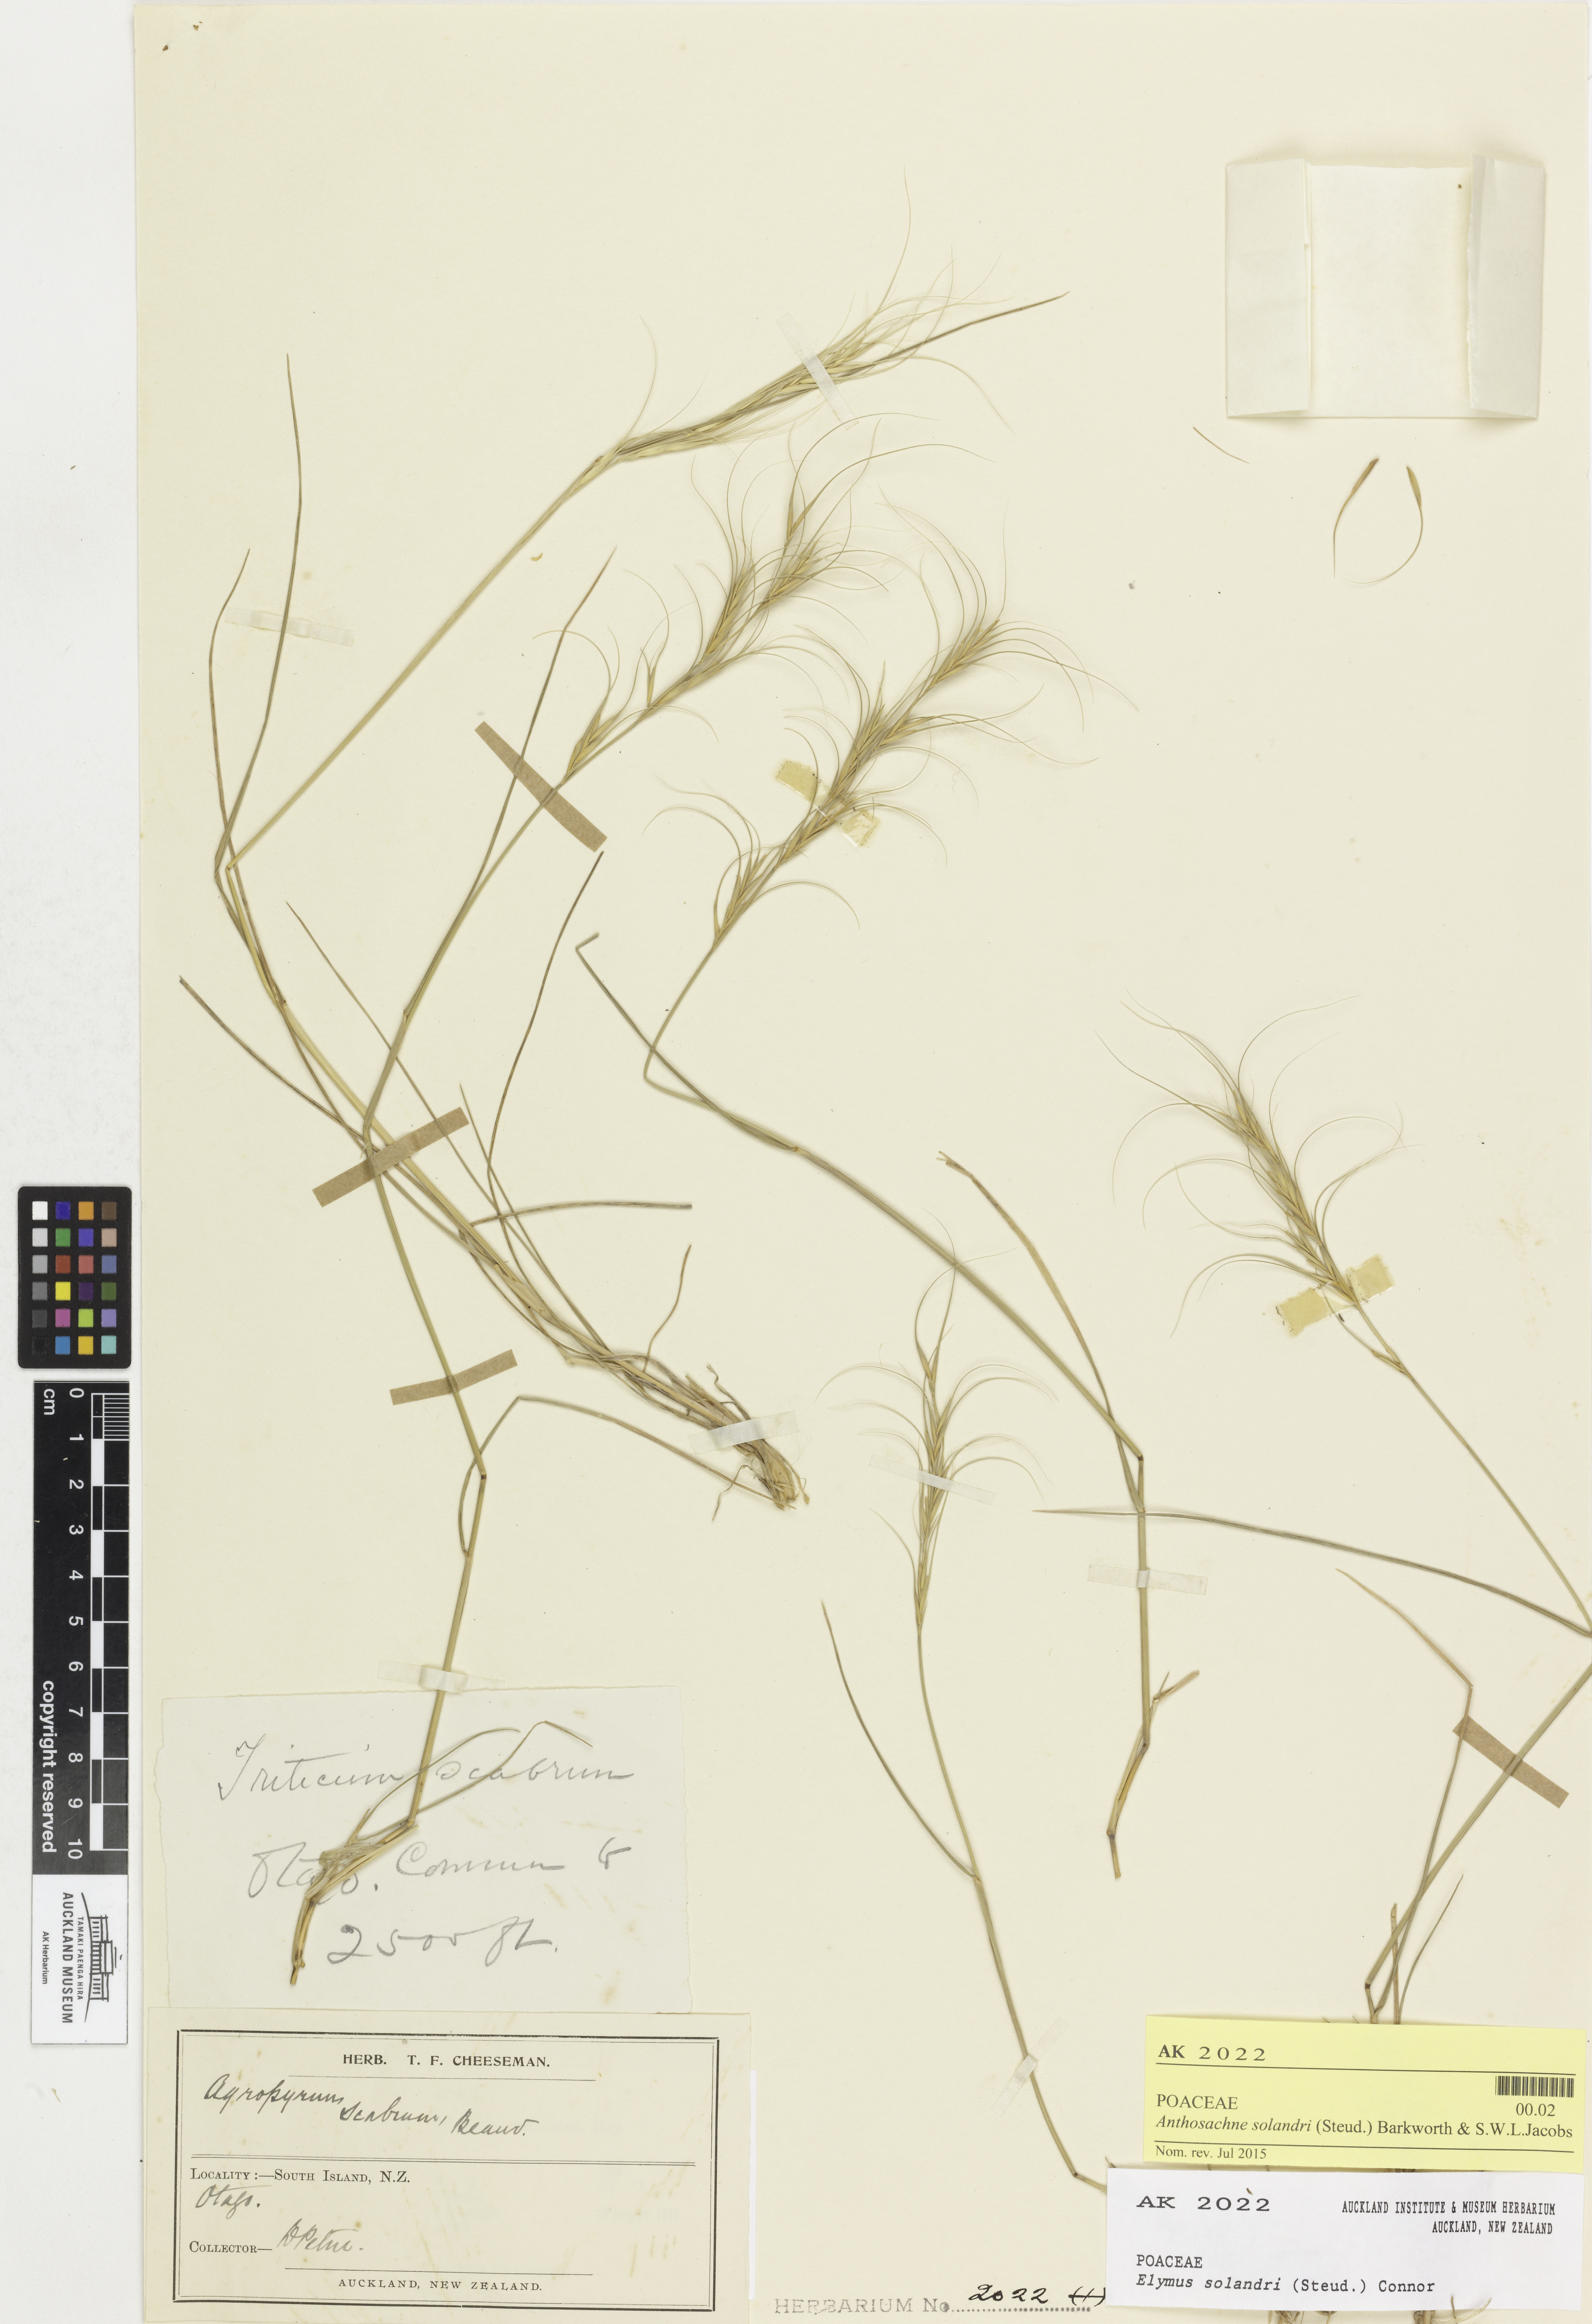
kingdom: Plantae
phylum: Tracheophyta
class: Liliopsida
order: Poales
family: Poaceae
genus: Anthosachne
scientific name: Anthosachne solandri
